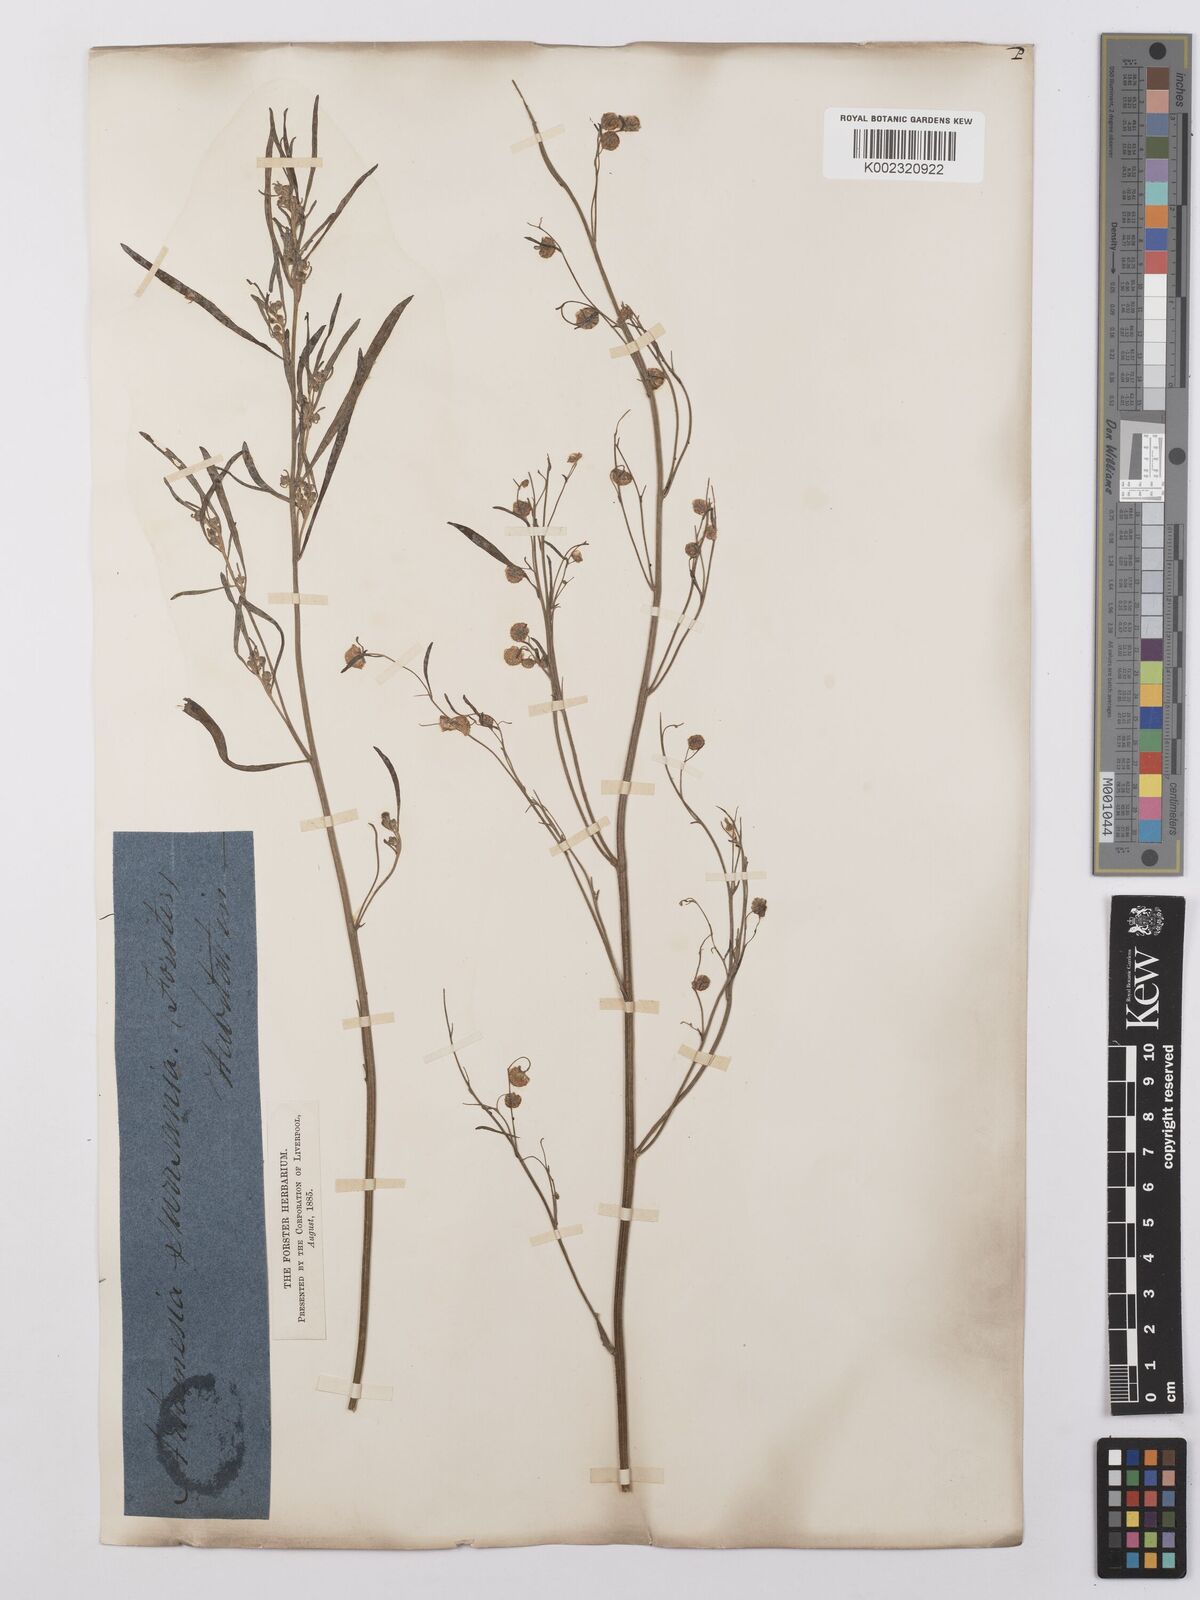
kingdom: Plantae
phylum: Tracheophyta
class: Magnoliopsida
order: Asterales
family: Asteraceae
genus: Artemisia
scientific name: Artemisia sieversiana
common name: Sieversian wormwood
